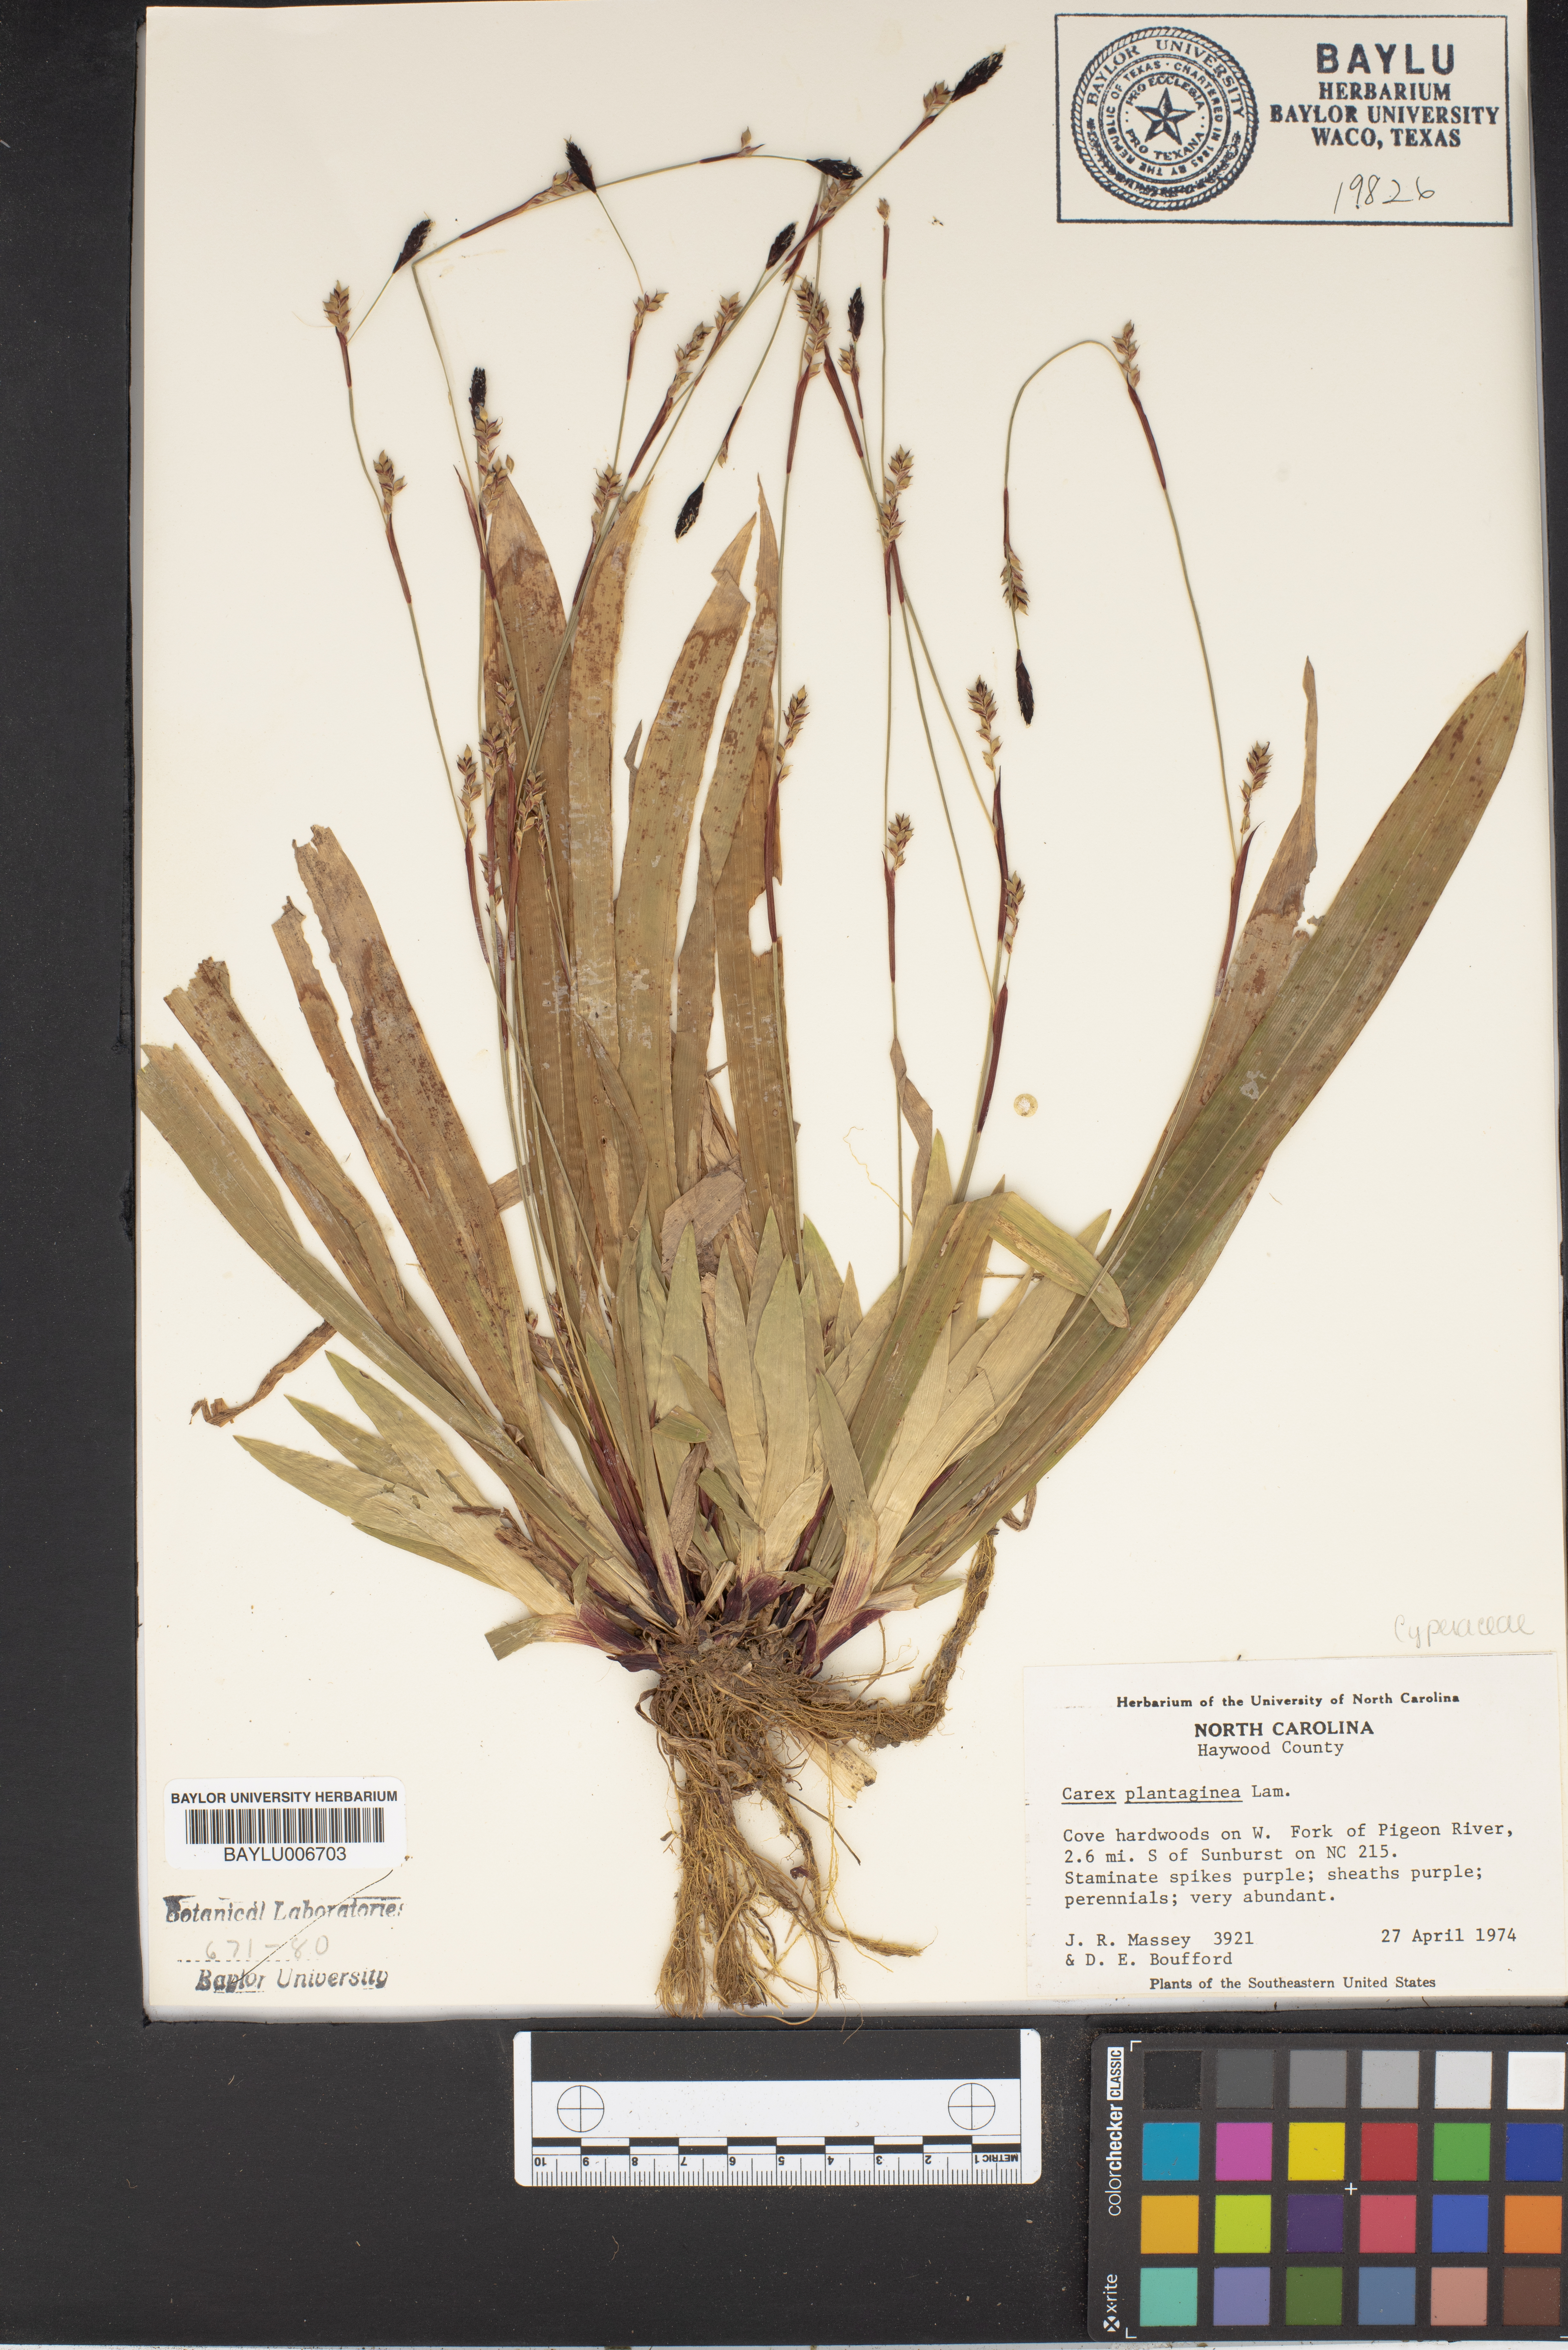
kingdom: Plantae
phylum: Tracheophyta
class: Liliopsida
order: Poales
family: Cyperaceae
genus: Carex
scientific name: Carex plantaginea
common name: Plantain-leaved sedge
